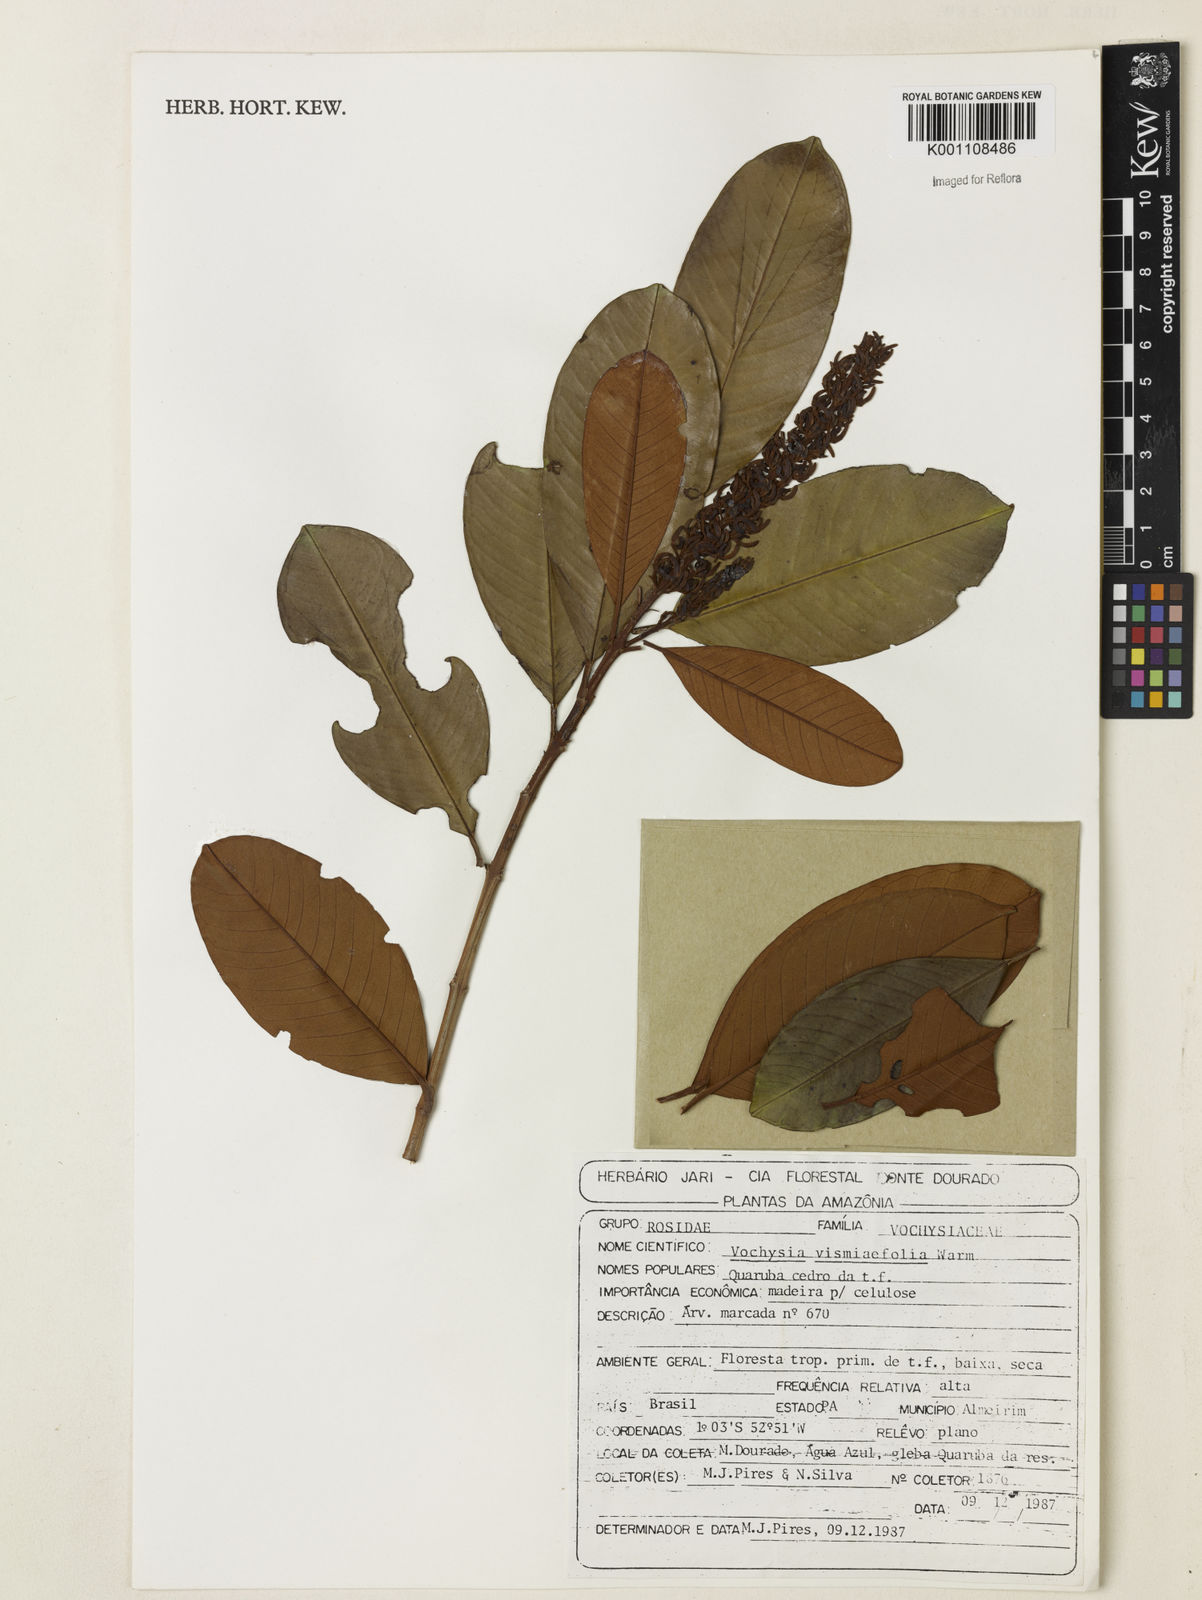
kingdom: Plantae
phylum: Tracheophyta
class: Magnoliopsida
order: Myrtales
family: Vochysiaceae
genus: Vochysia
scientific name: Vochysia vismiifolia
